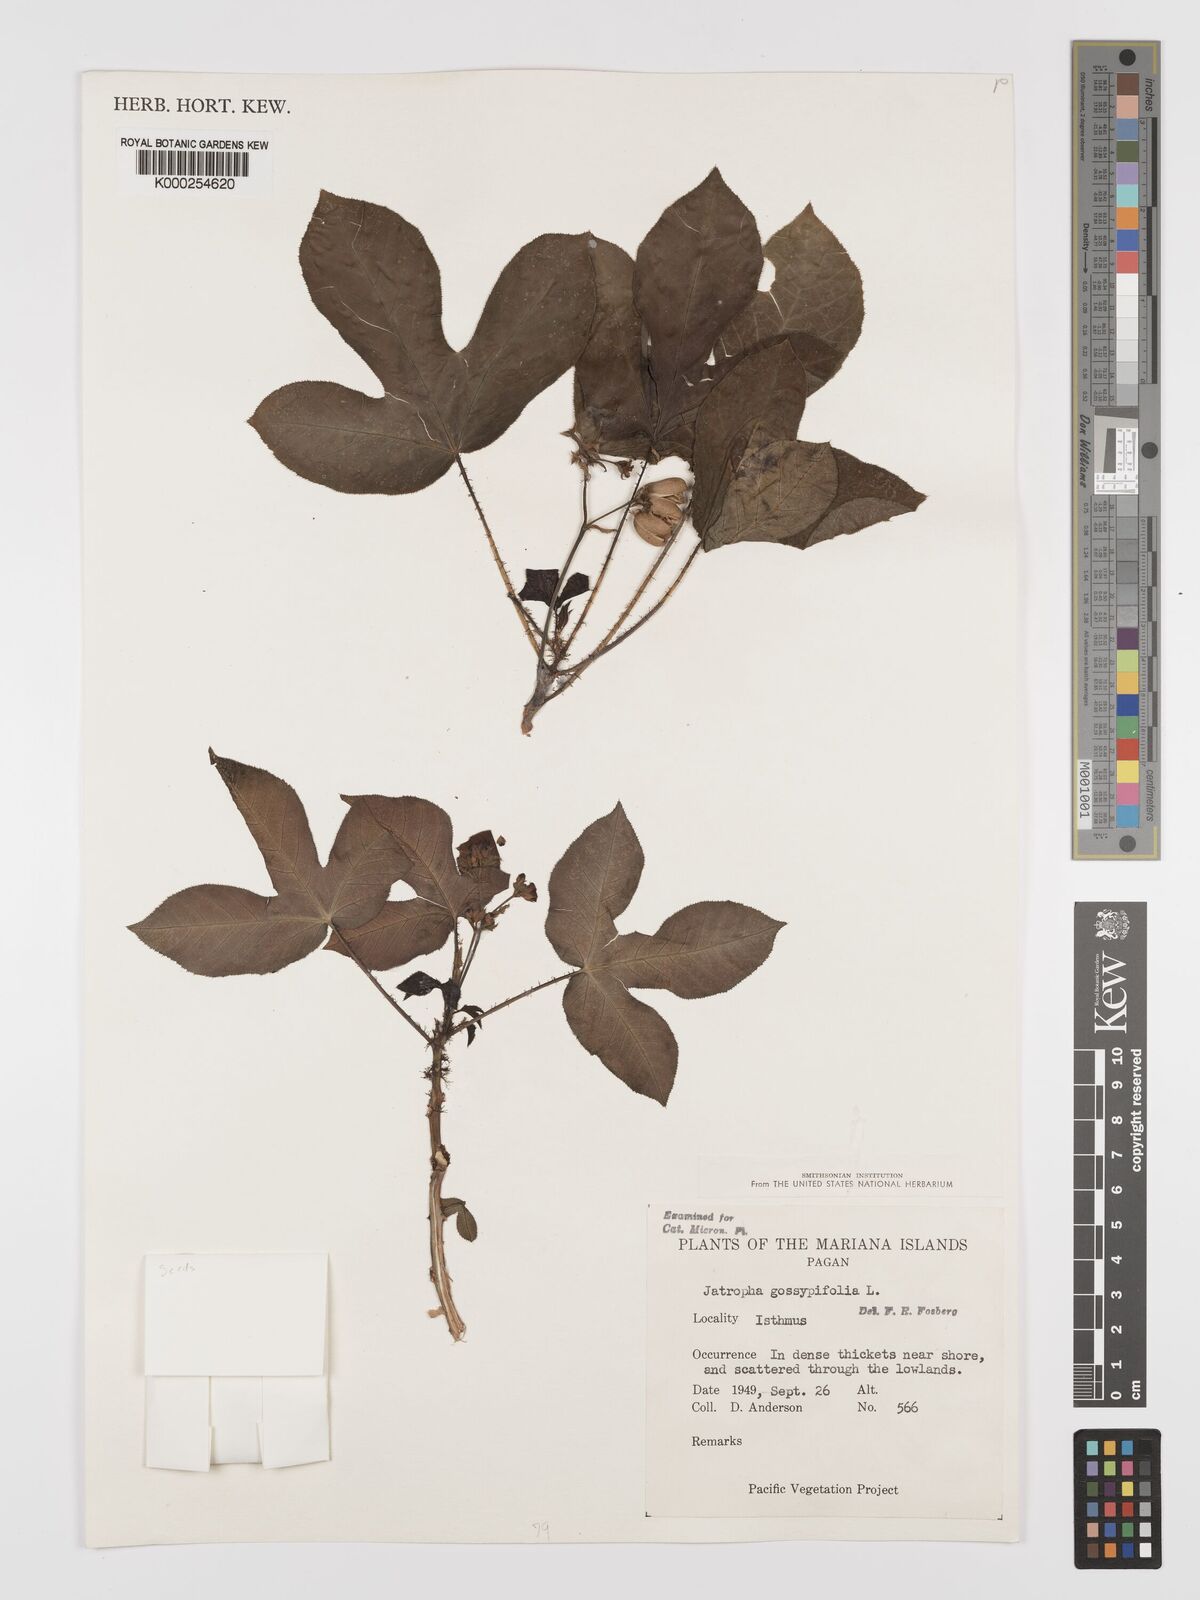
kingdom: Plantae
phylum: Tracheophyta
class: Magnoliopsida
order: Malpighiales
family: Euphorbiaceae
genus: Jatropha
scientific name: Jatropha gossypiifolia
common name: Bellyache bush
